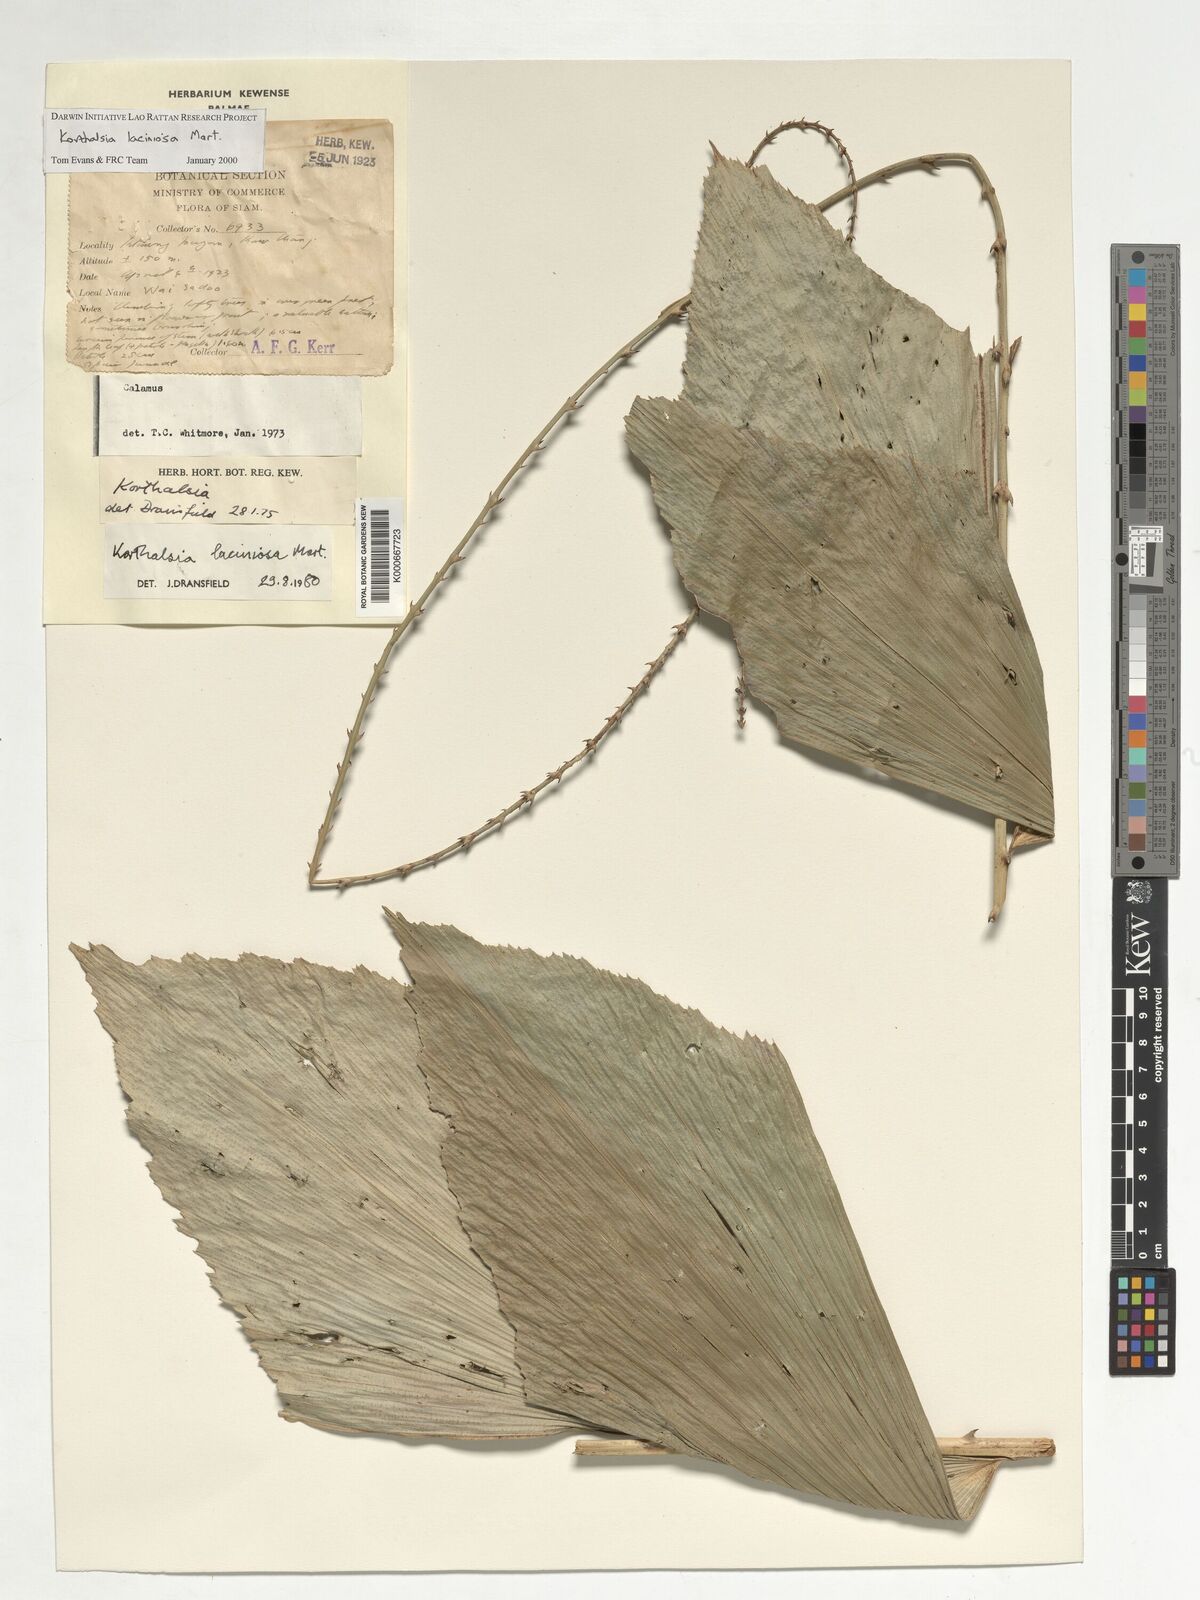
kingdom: Plantae
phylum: Tracheophyta
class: Liliopsida
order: Arecales
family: Arecaceae
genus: Korthalsia
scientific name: Korthalsia laciniosa
